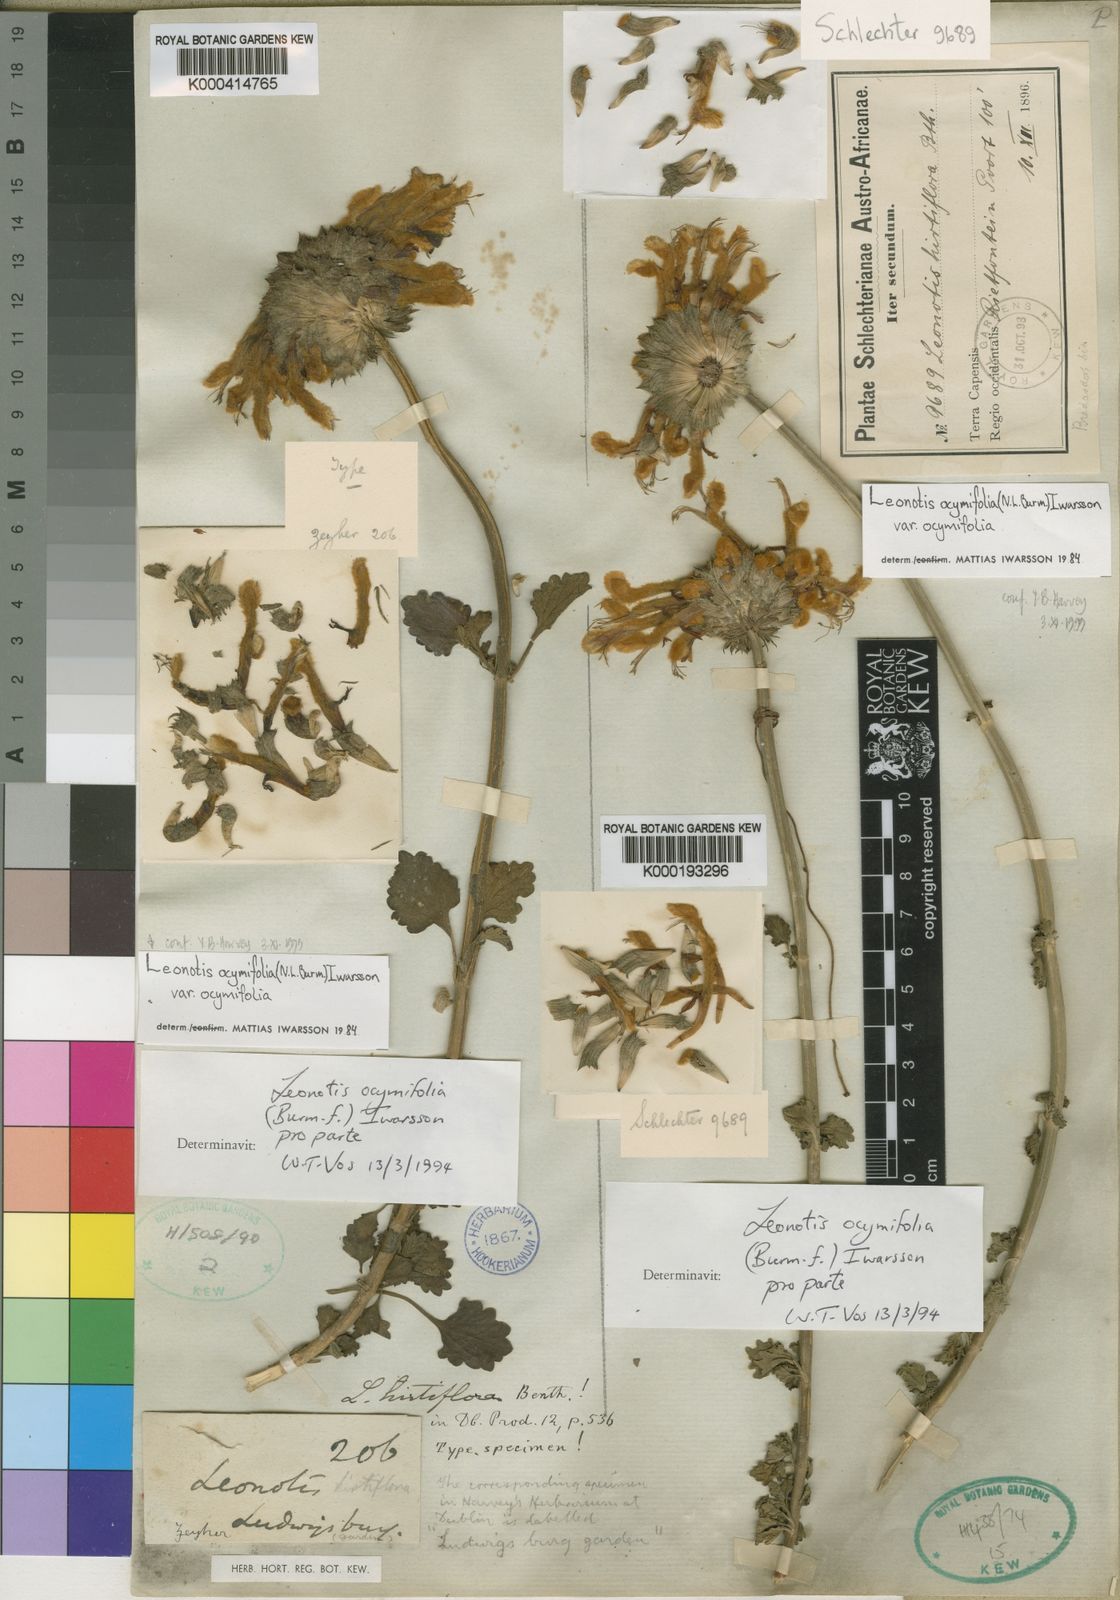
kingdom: Plantae
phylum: Tracheophyta
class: Magnoliopsida
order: Lamiales
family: Lamiaceae
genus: Leonotis
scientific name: Leonotis ocymifolia
